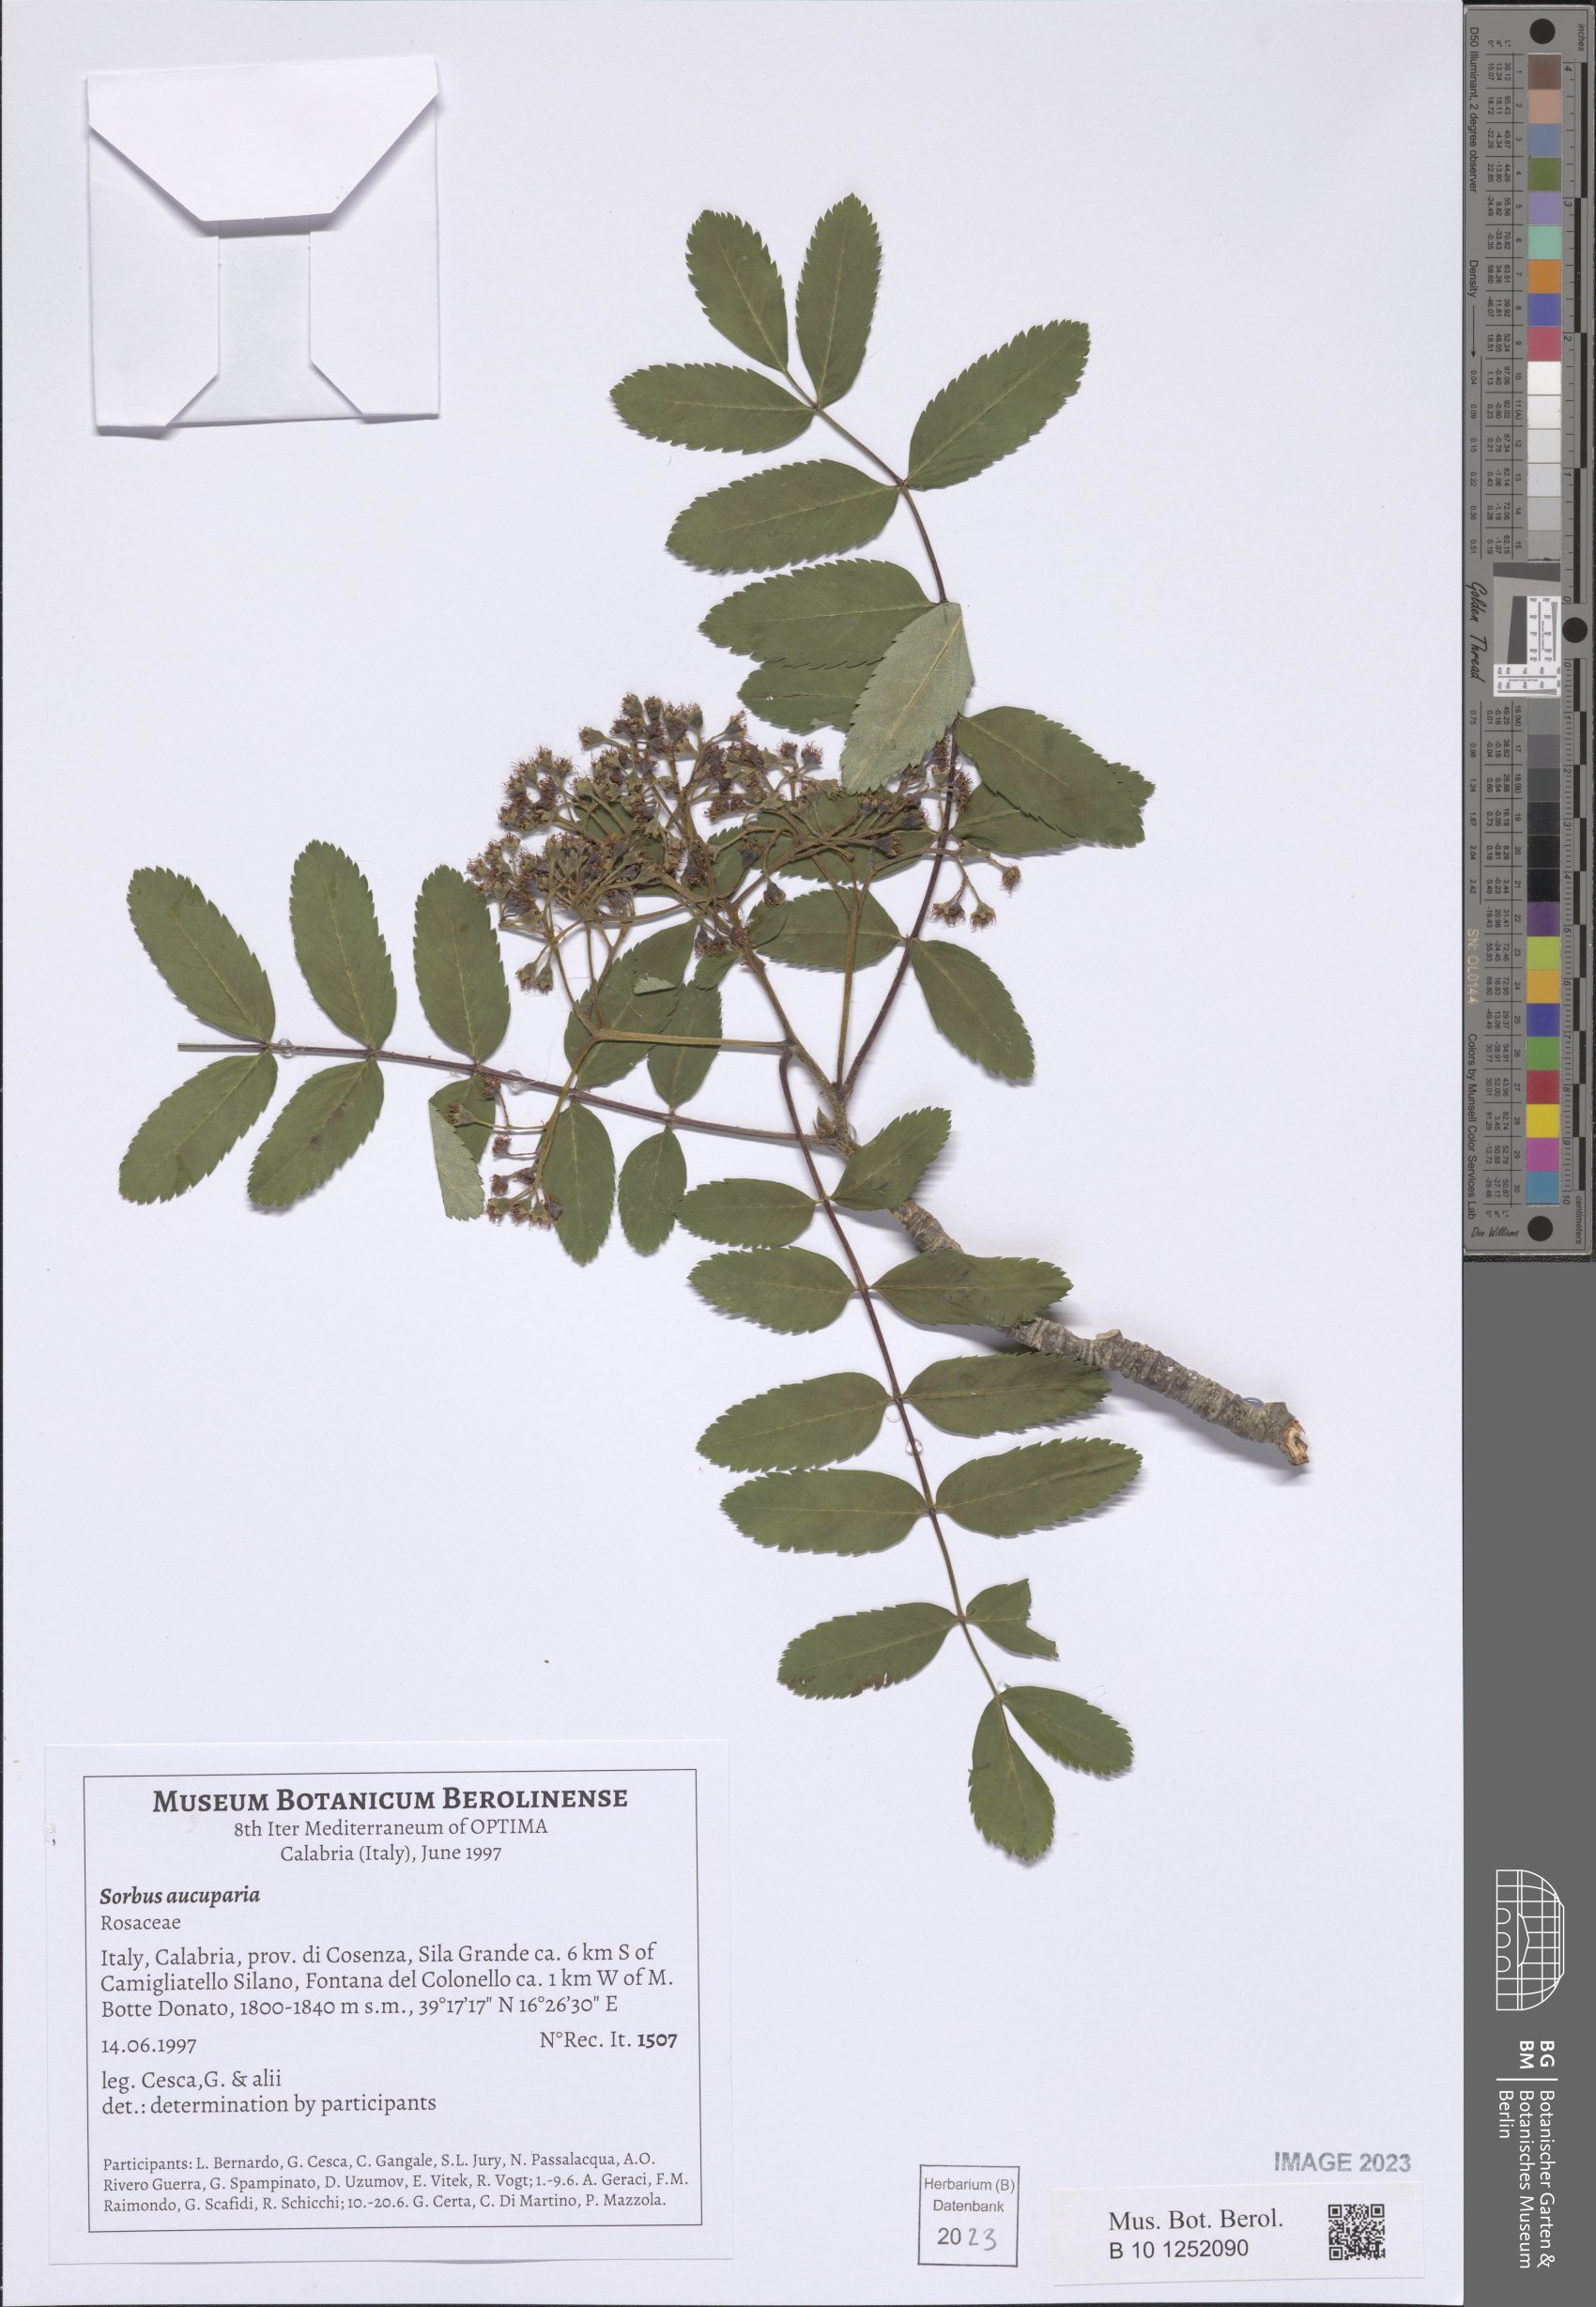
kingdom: Plantae
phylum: Tracheophyta
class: Magnoliopsida
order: Rosales
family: Rosaceae
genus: Sorbus
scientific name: Sorbus aucuparia
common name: Rowan
